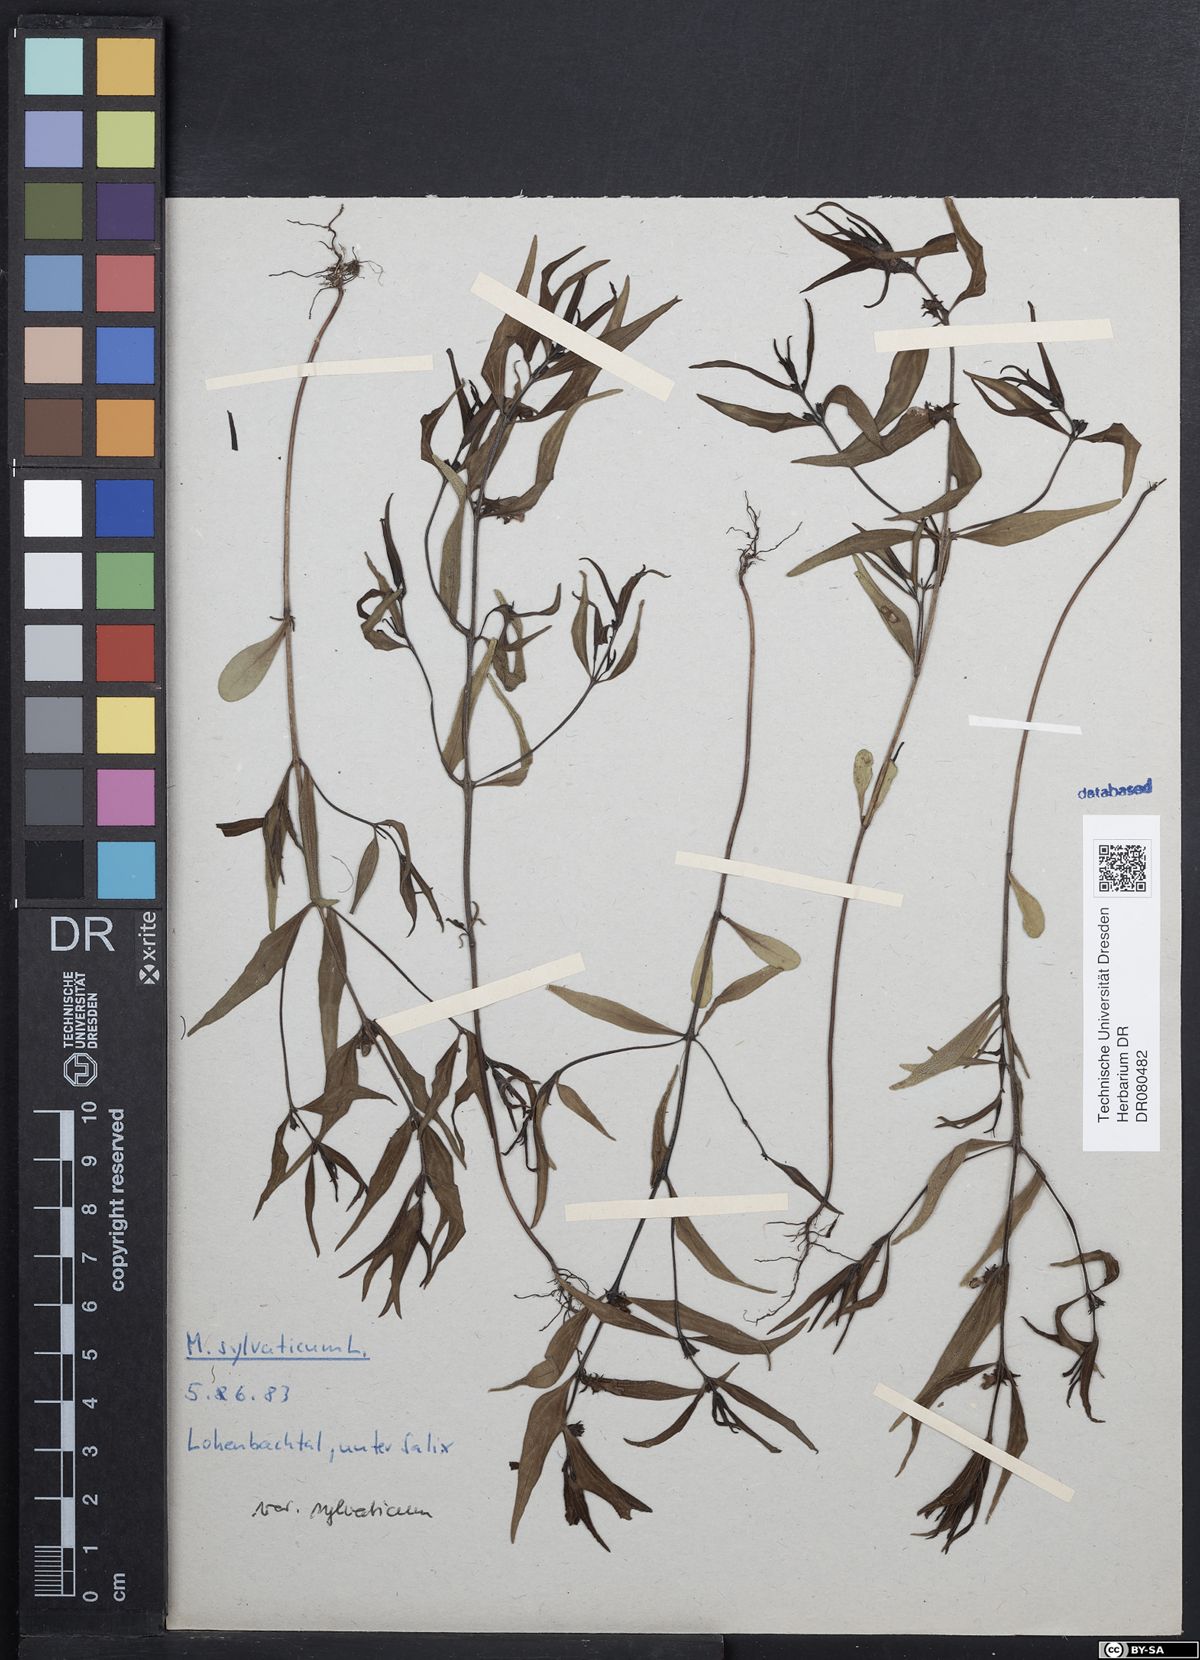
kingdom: Plantae
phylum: Tracheophyta
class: Magnoliopsida
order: Lamiales
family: Orobanchaceae
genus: Melampyrum
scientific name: Melampyrum sylvaticum
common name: Small cow-wheat
